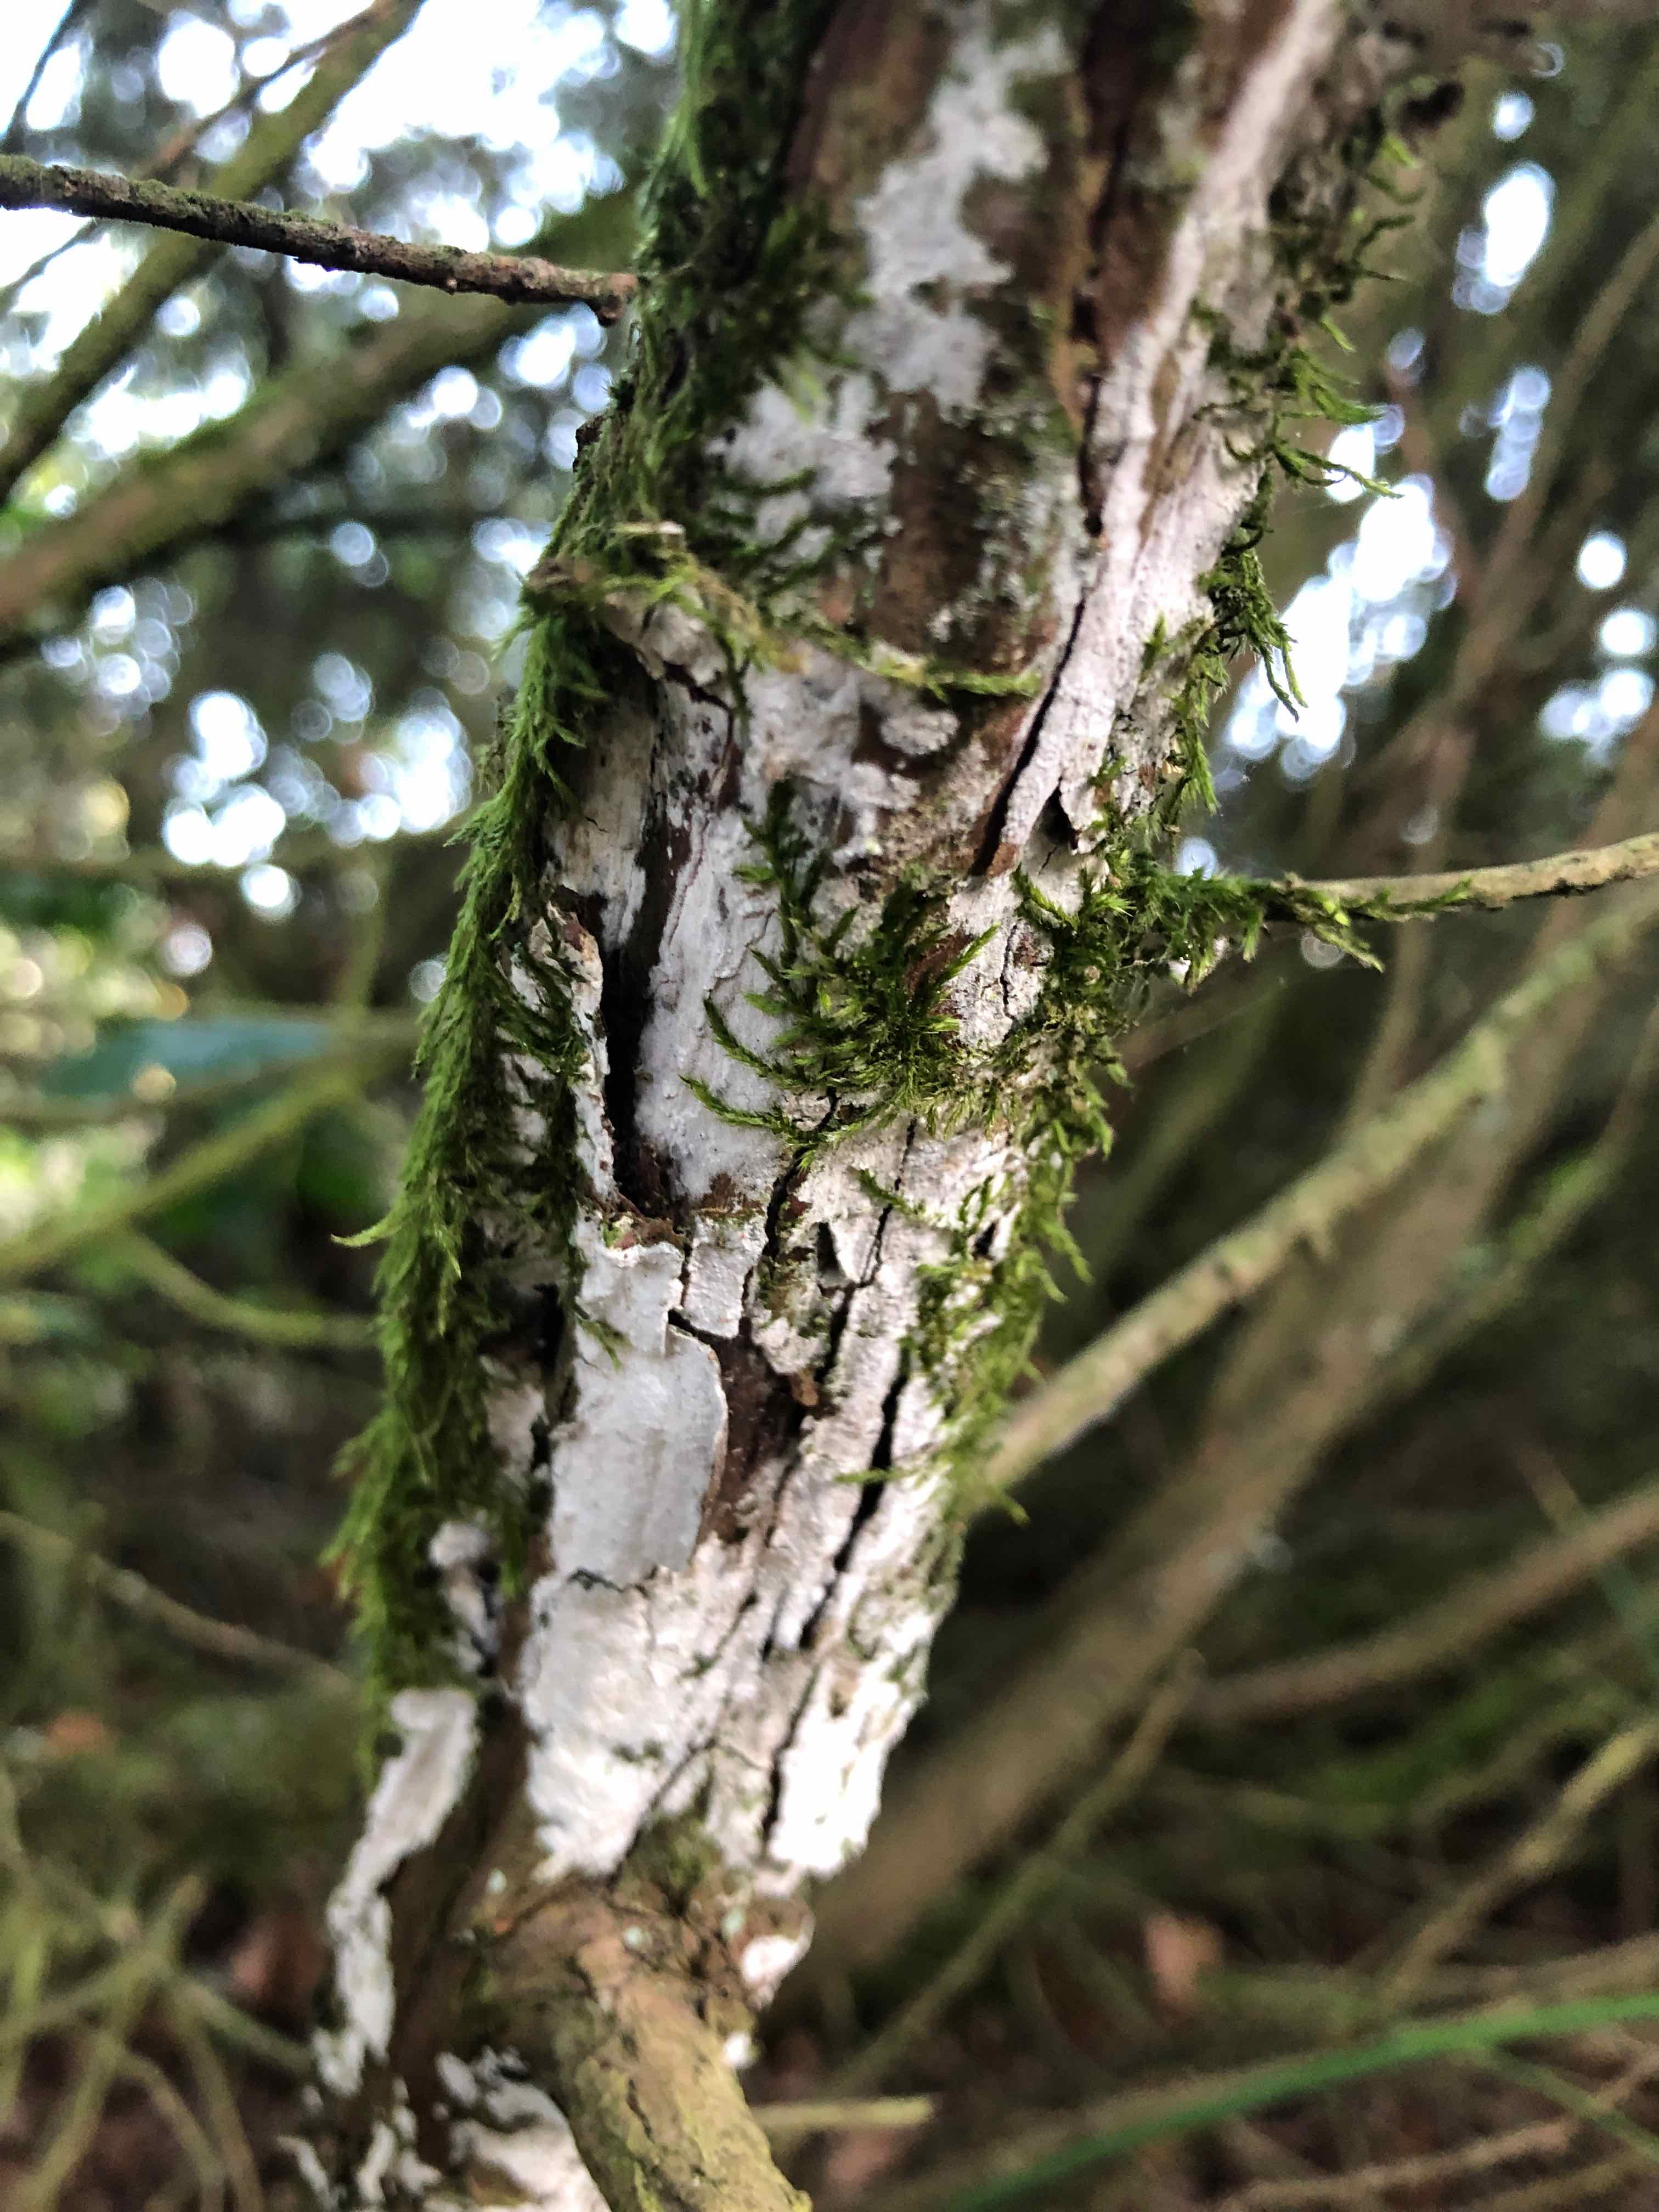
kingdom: Fungi
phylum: Basidiomycota
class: Agaricomycetes
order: Russulales
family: Echinodontiaceae
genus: Amylostereum
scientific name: Amylostereum laevigatum
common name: ene-lædersvamp
